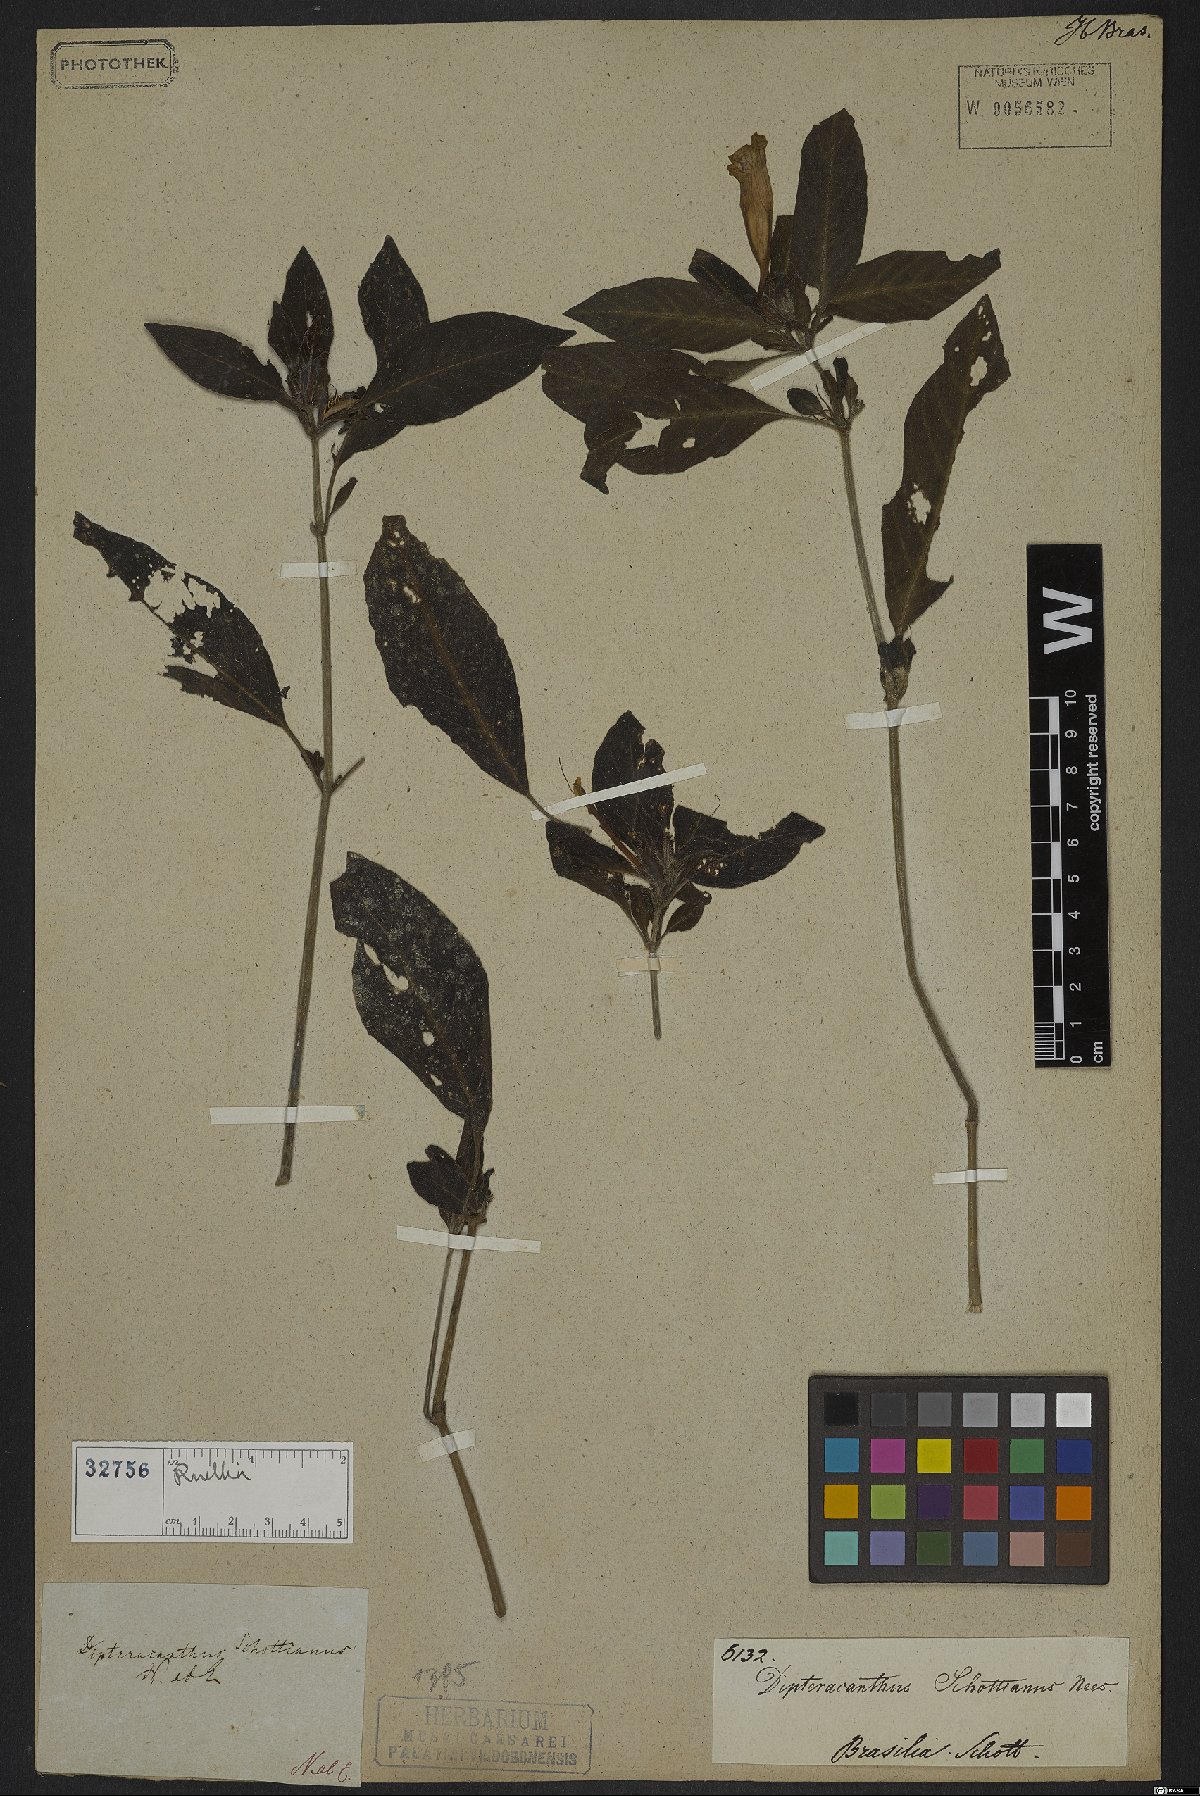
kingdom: Plantae
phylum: Tracheophyta
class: Magnoliopsida
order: Lamiales
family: Acanthaceae
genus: Ruellia
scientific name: Ruellia schottianus
